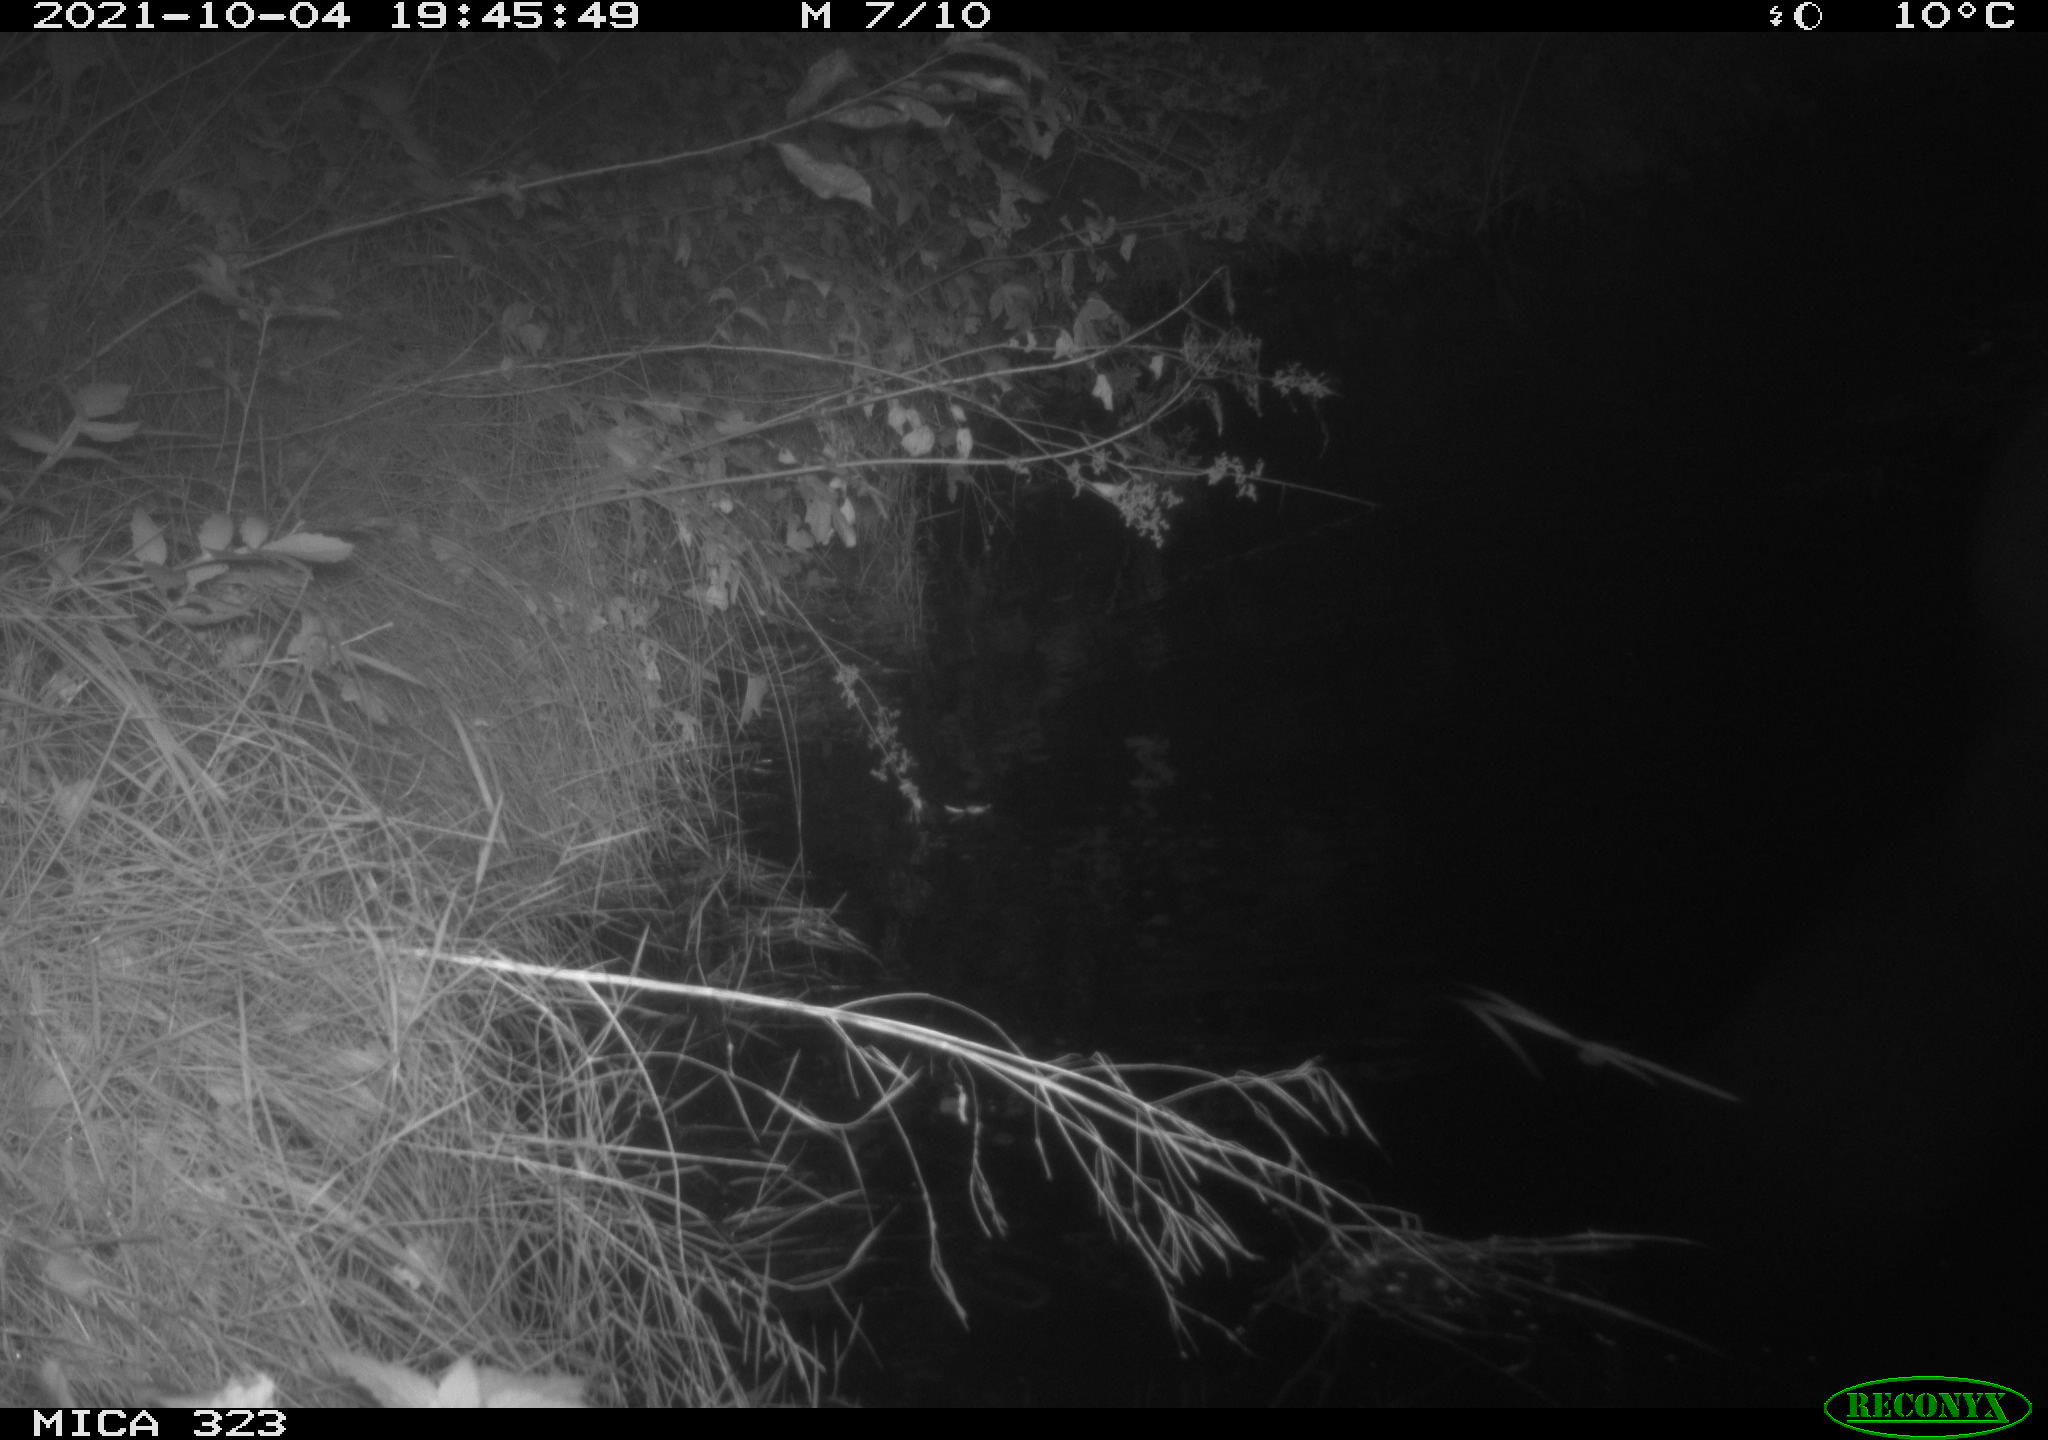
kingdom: Animalia
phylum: Chordata
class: Aves
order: Anseriformes
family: Anatidae
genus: Anas
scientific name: Anas
